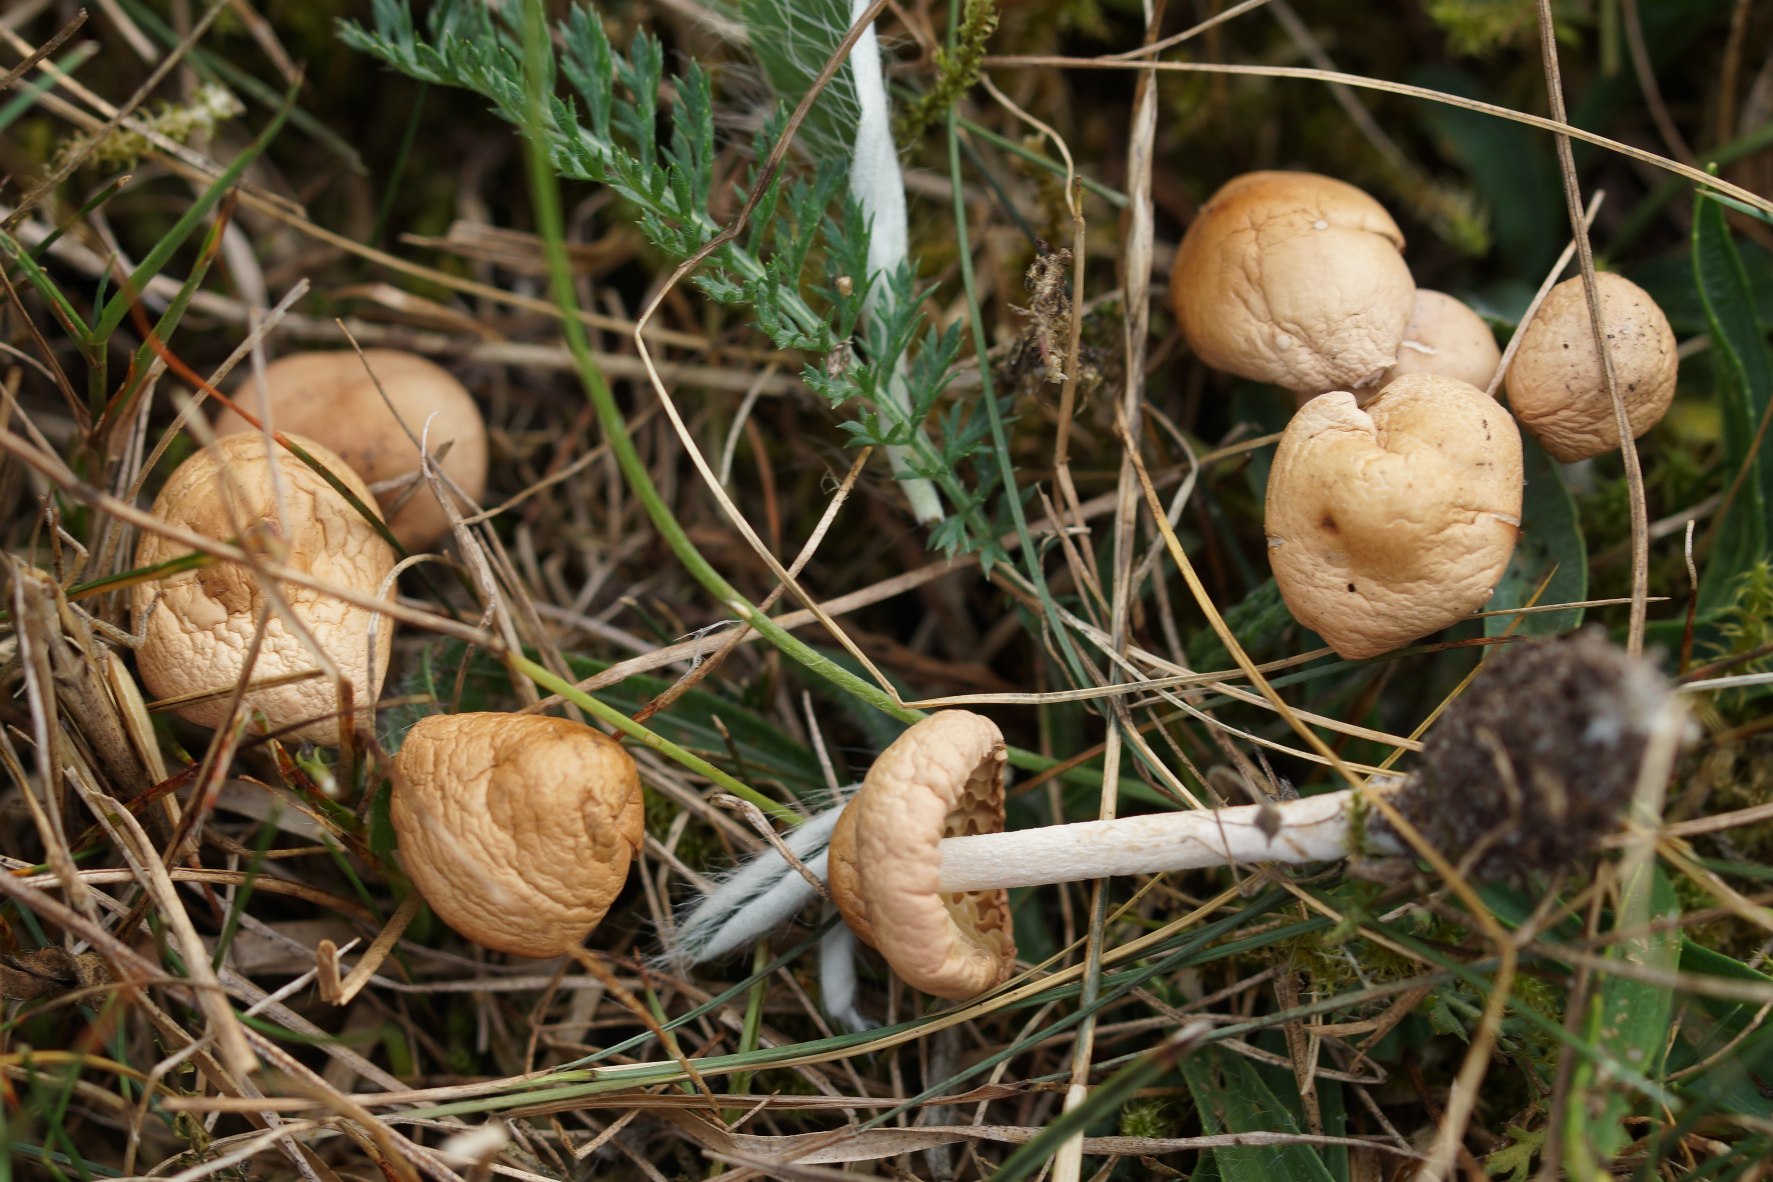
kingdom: Fungi
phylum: Basidiomycota
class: Agaricomycetes
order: Agaricales
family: Marasmiaceae
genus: Marasmius
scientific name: Marasmius oreades
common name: Elledans-bruskhat
